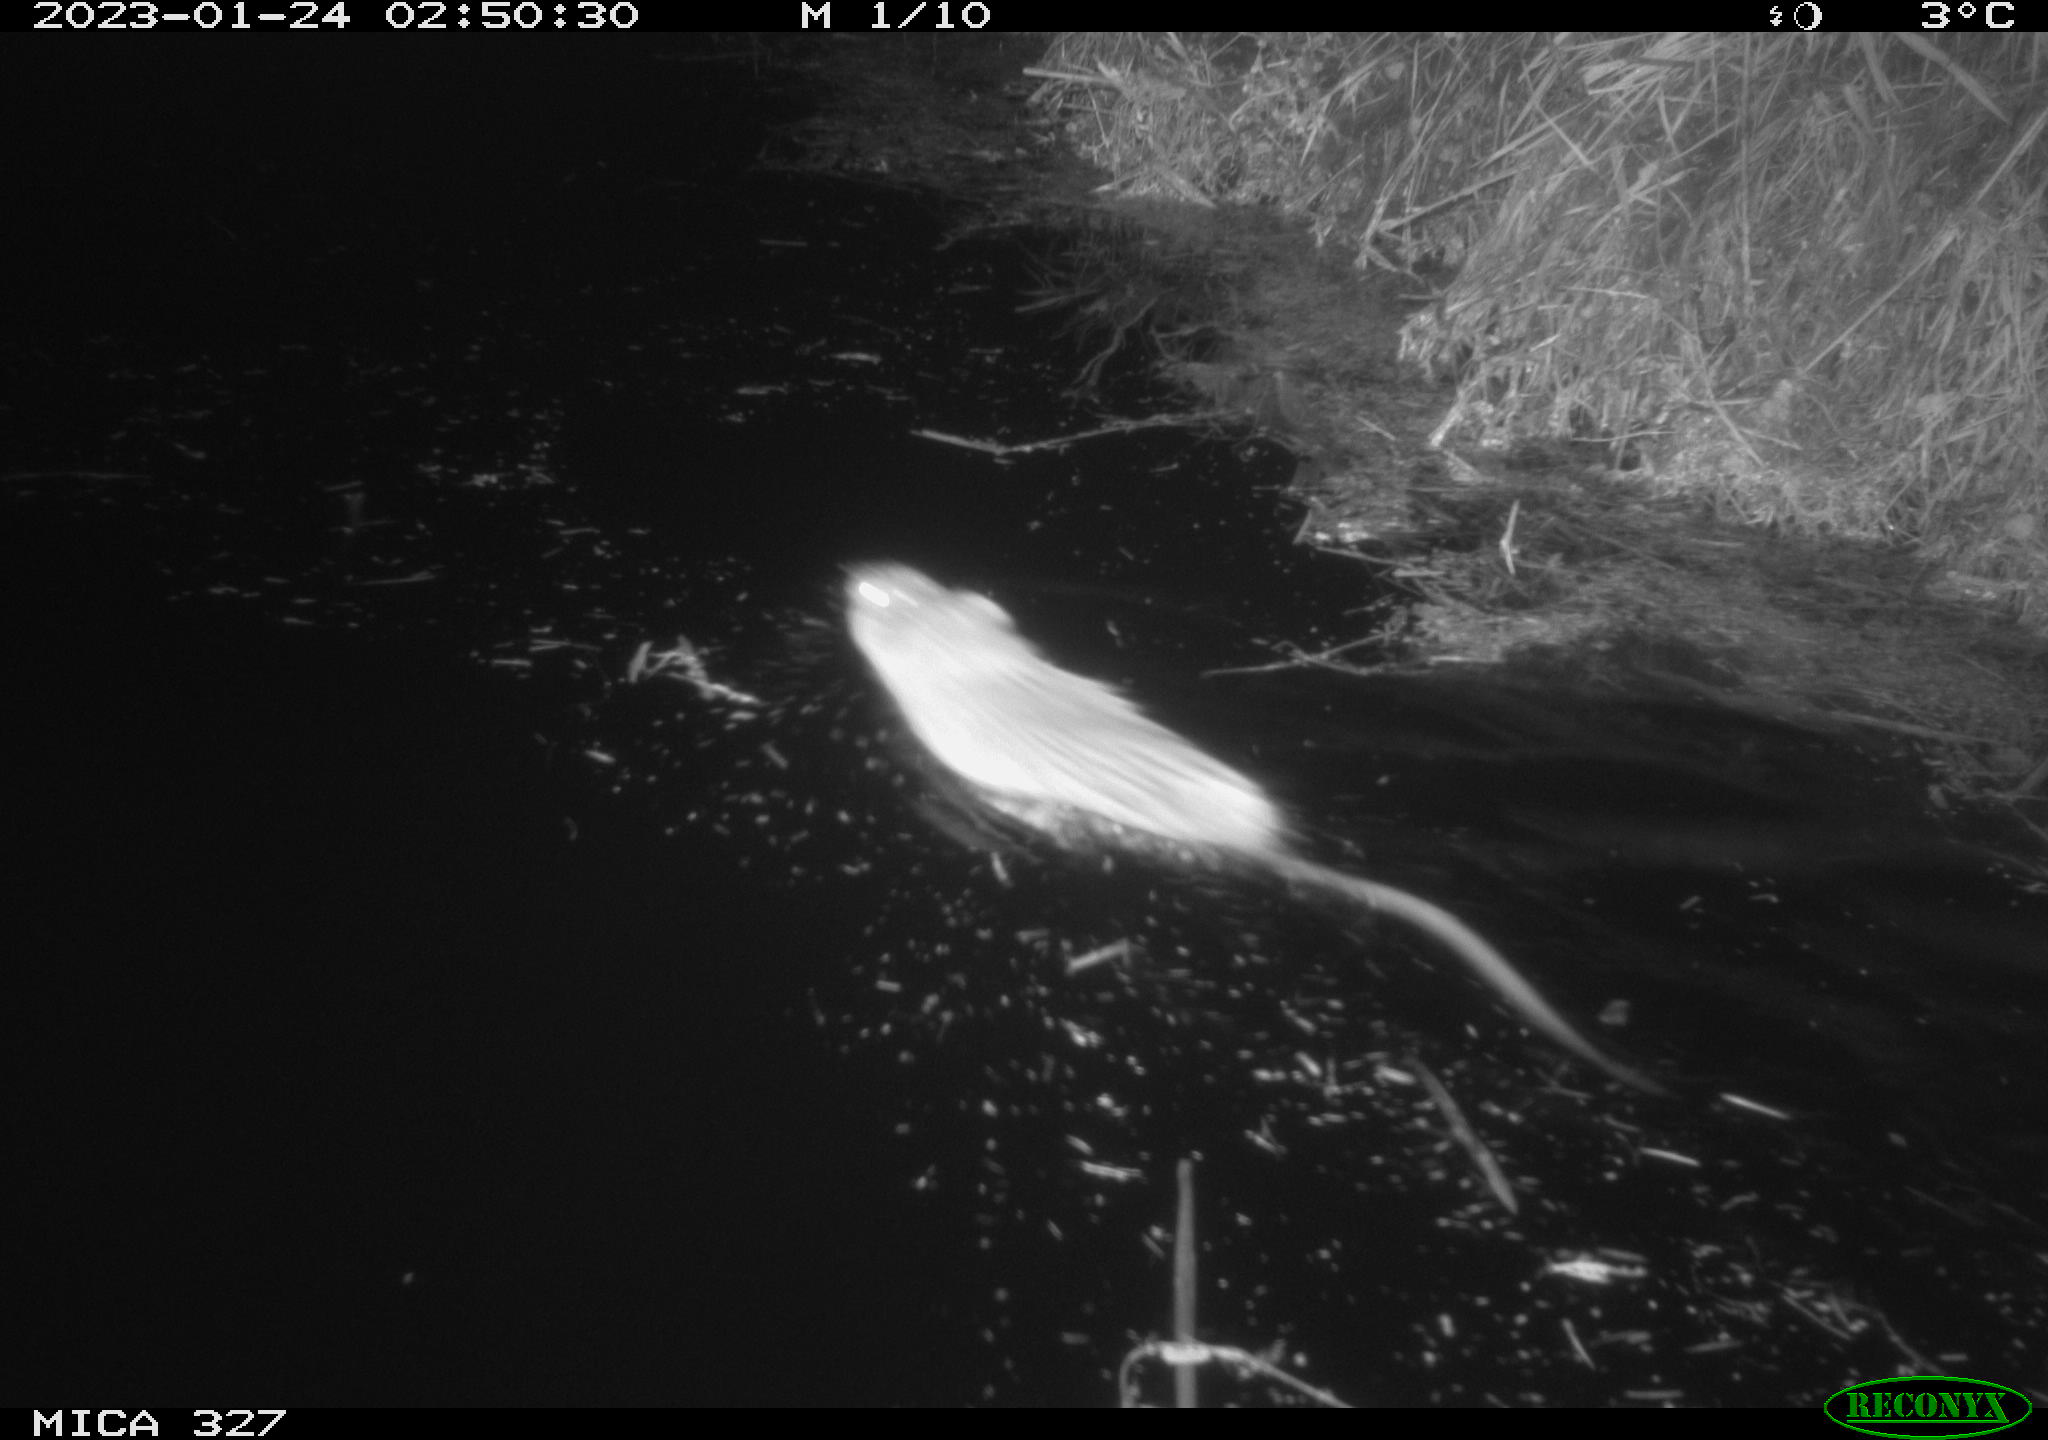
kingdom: Animalia
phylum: Chordata
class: Mammalia
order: Rodentia
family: Cricetidae
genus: Ondatra
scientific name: Ondatra zibethicus
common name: Muskrat
